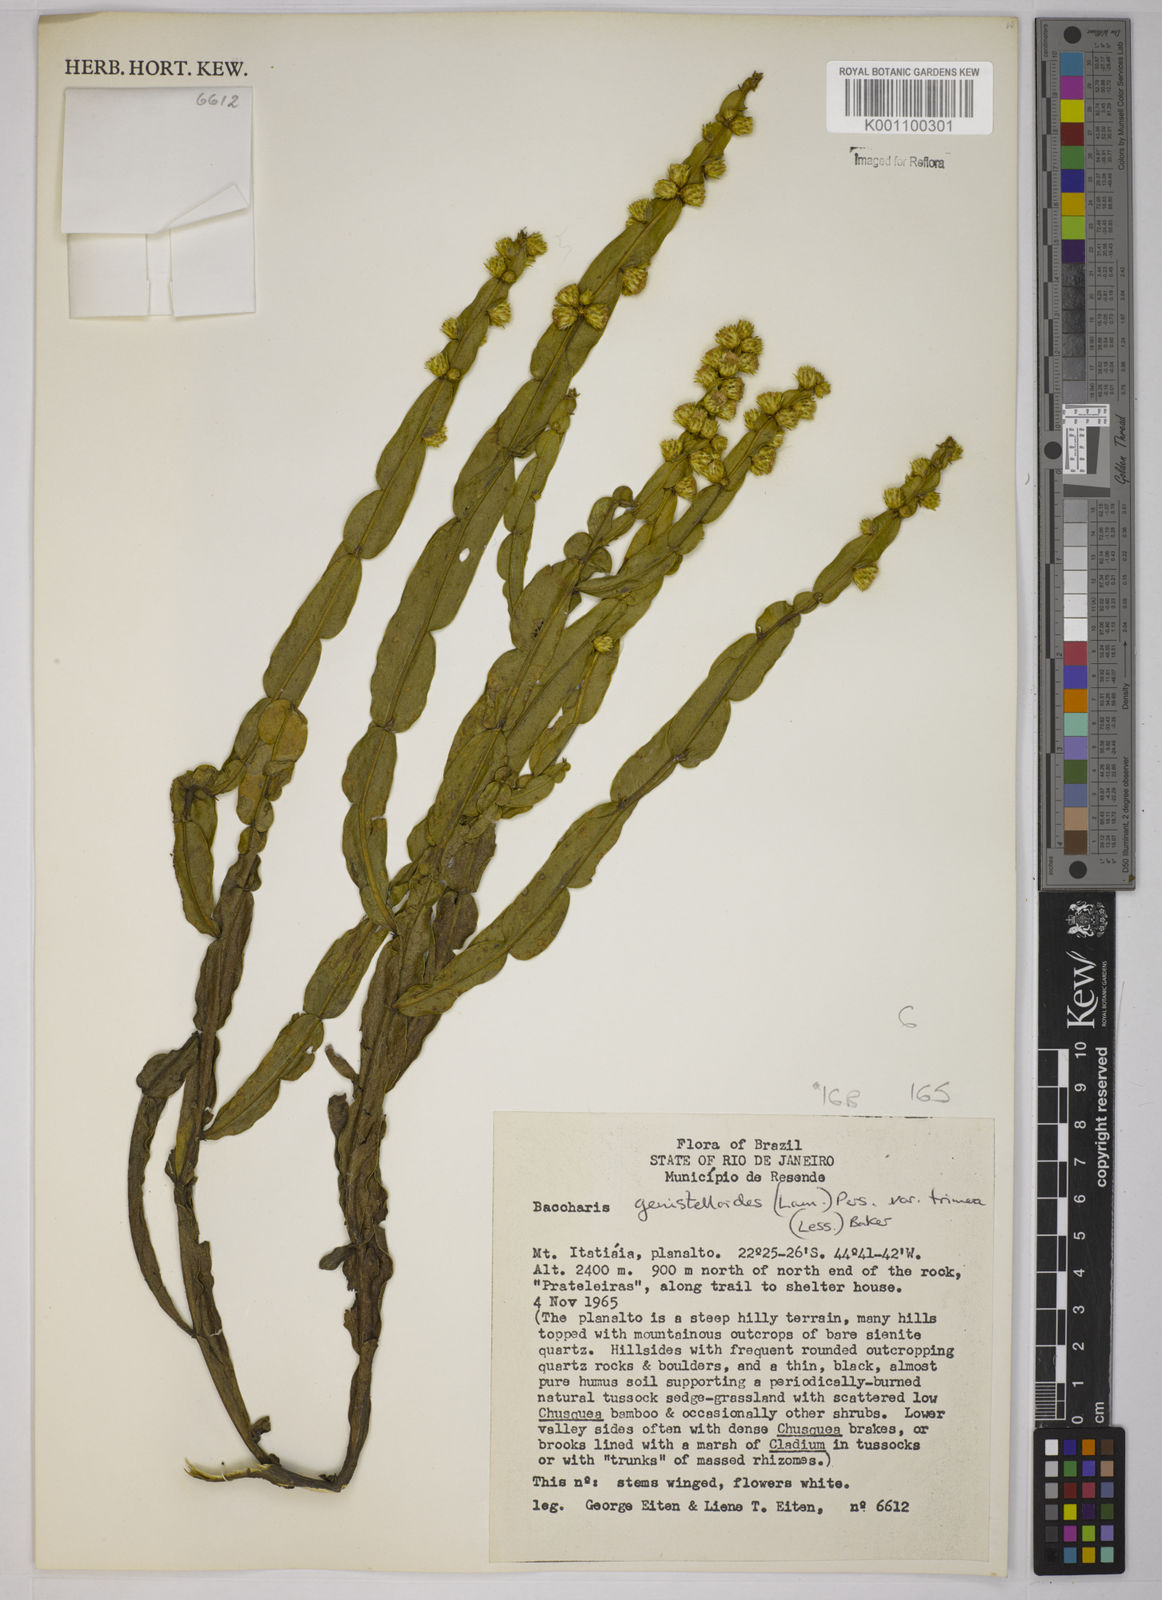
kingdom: Plantae
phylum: Tracheophyta
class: Magnoliopsida
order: Asterales
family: Asteraceae
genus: Baccharis
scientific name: Baccharis trimera
